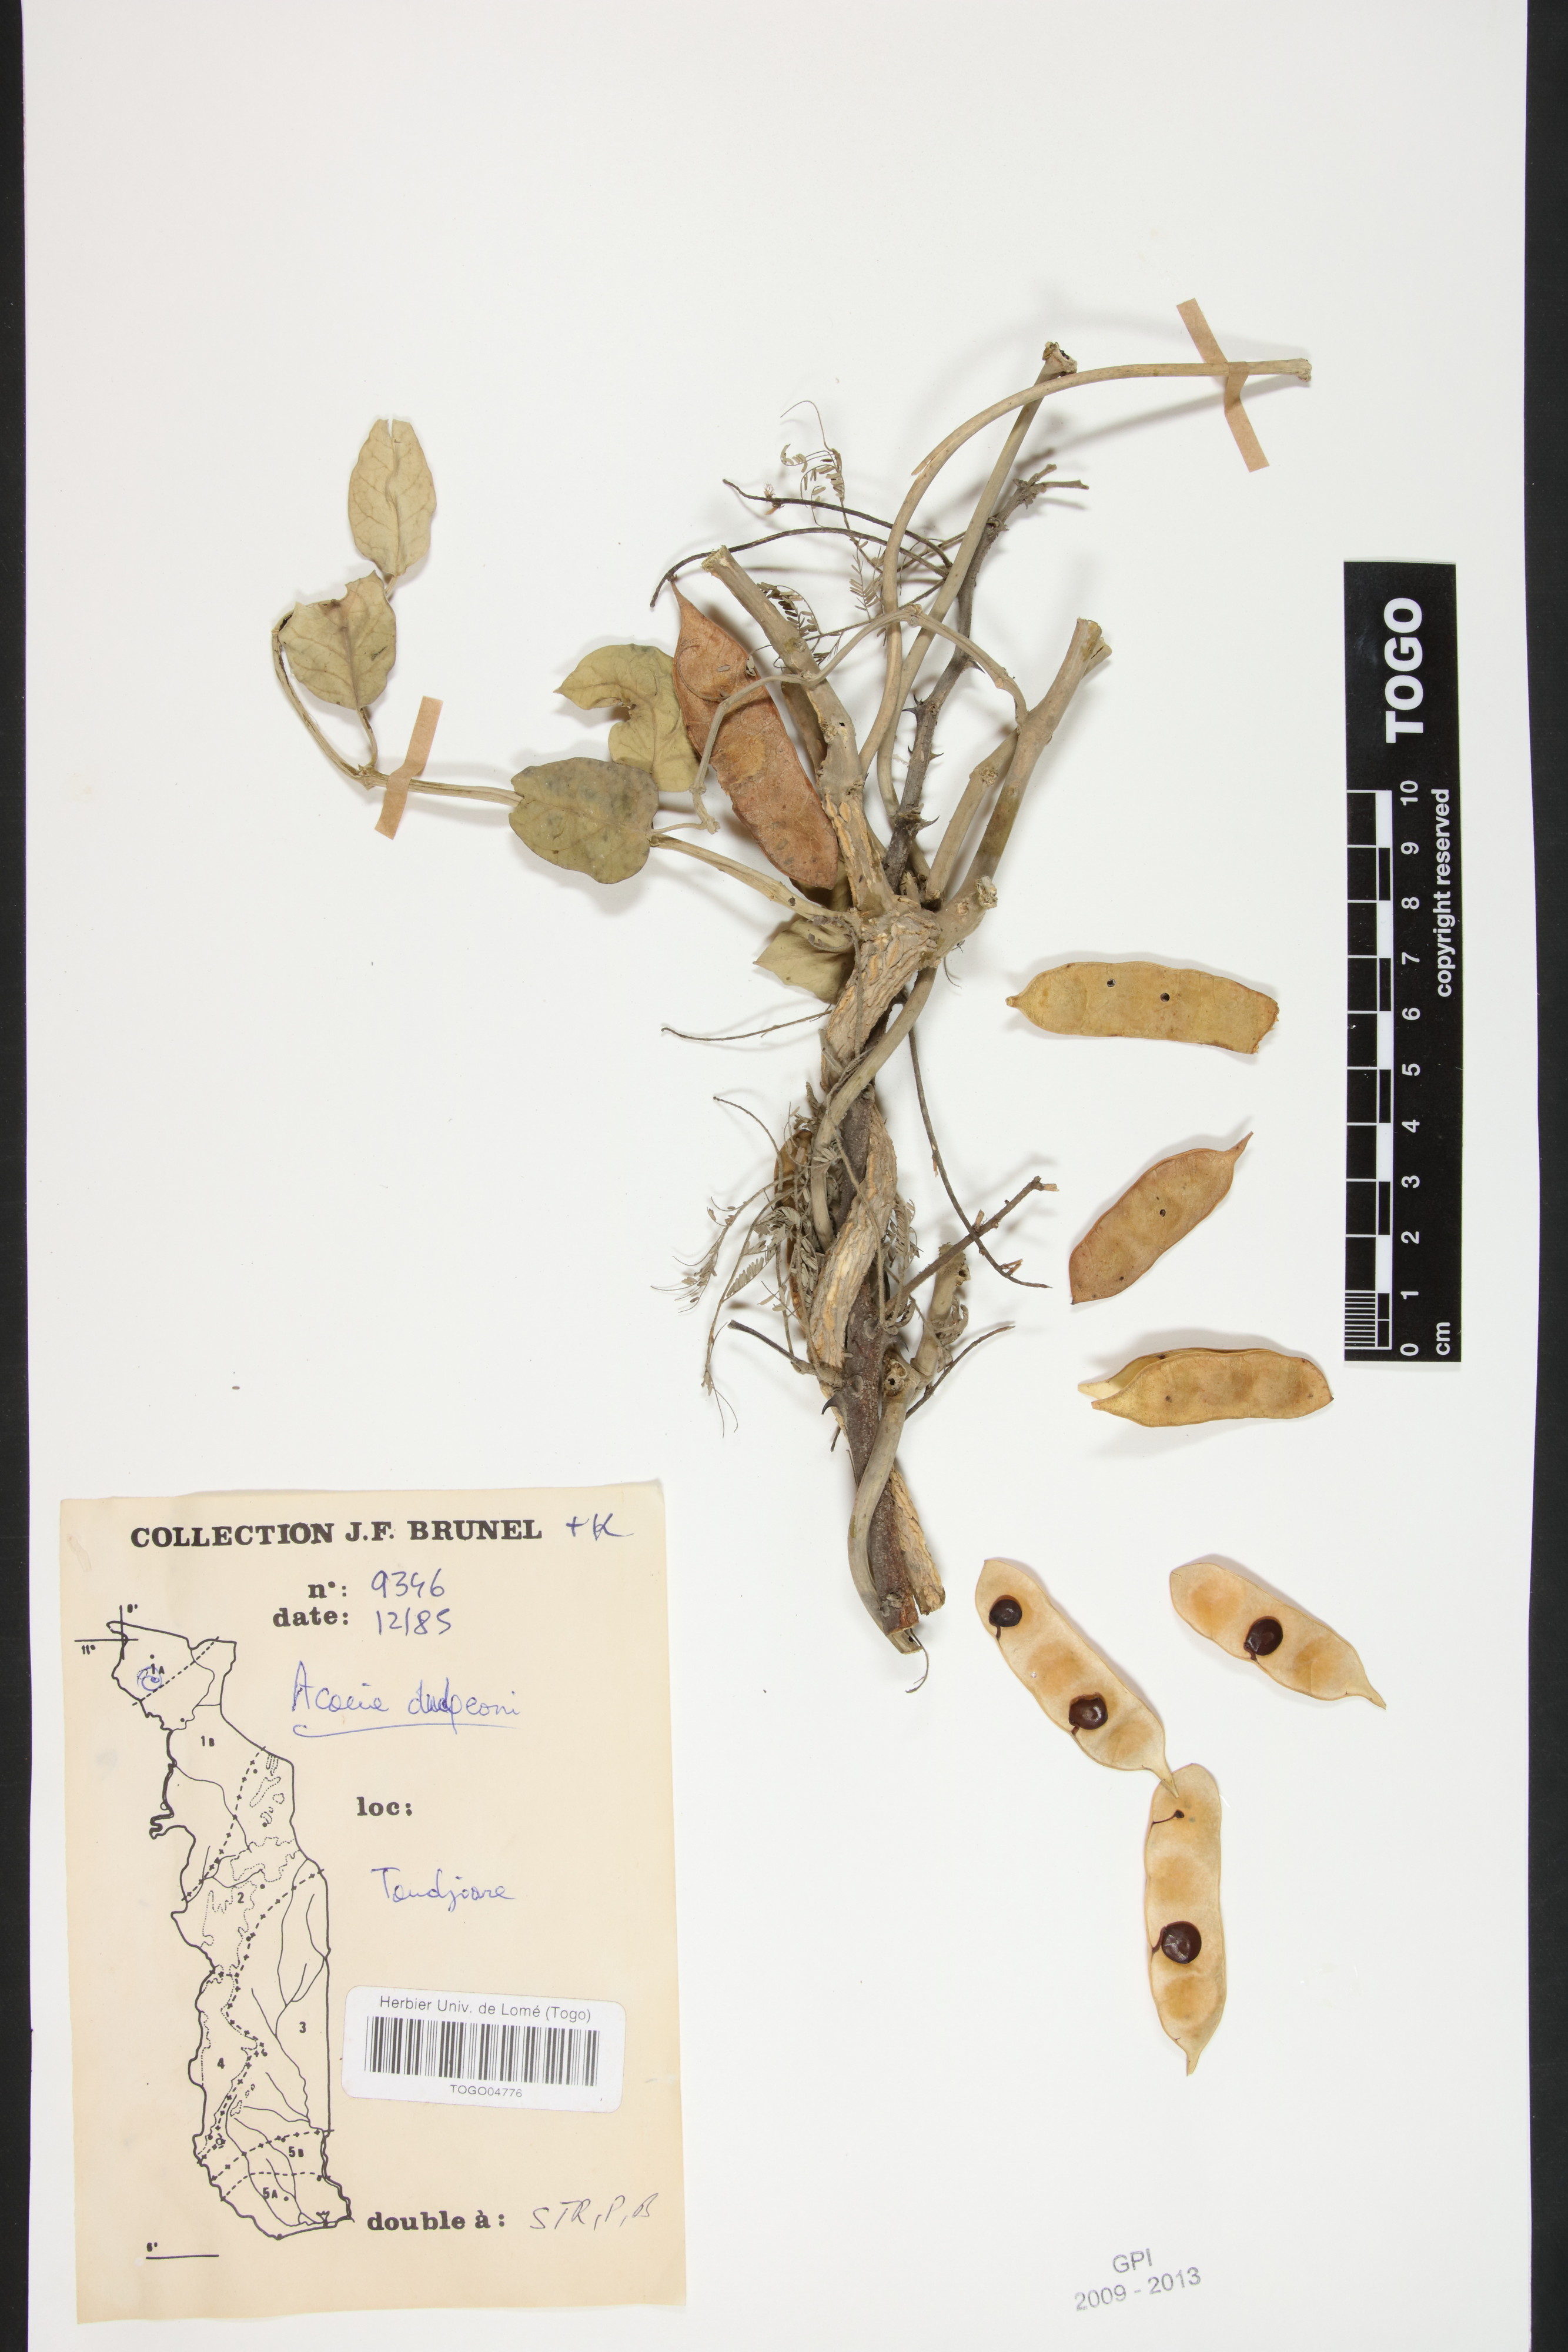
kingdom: Plantae
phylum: Tracheophyta
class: Magnoliopsida
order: Fabales
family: Fabaceae
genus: Senegalia
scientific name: Senegalia dudgeonii
